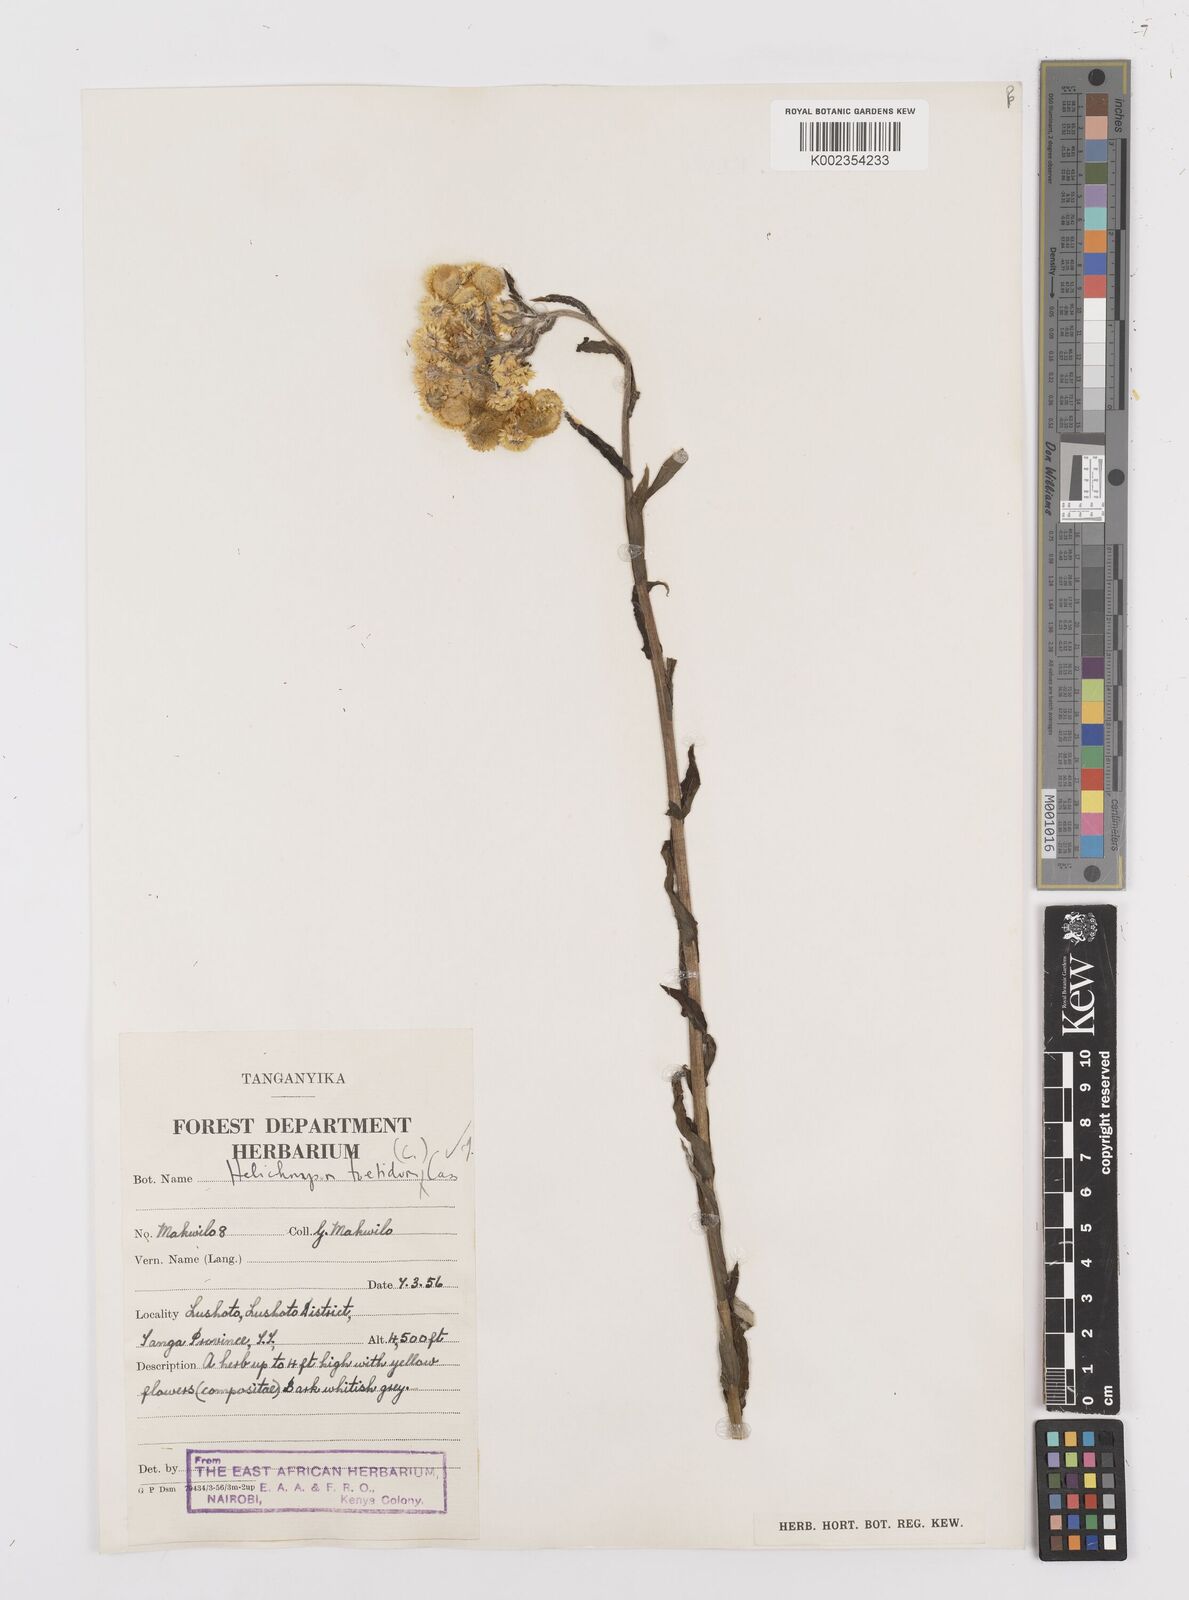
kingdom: Plantae
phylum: Tracheophyta
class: Magnoliopsida
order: Asterales
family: Asteraceae
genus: Helichrysum
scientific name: Helichrysum
